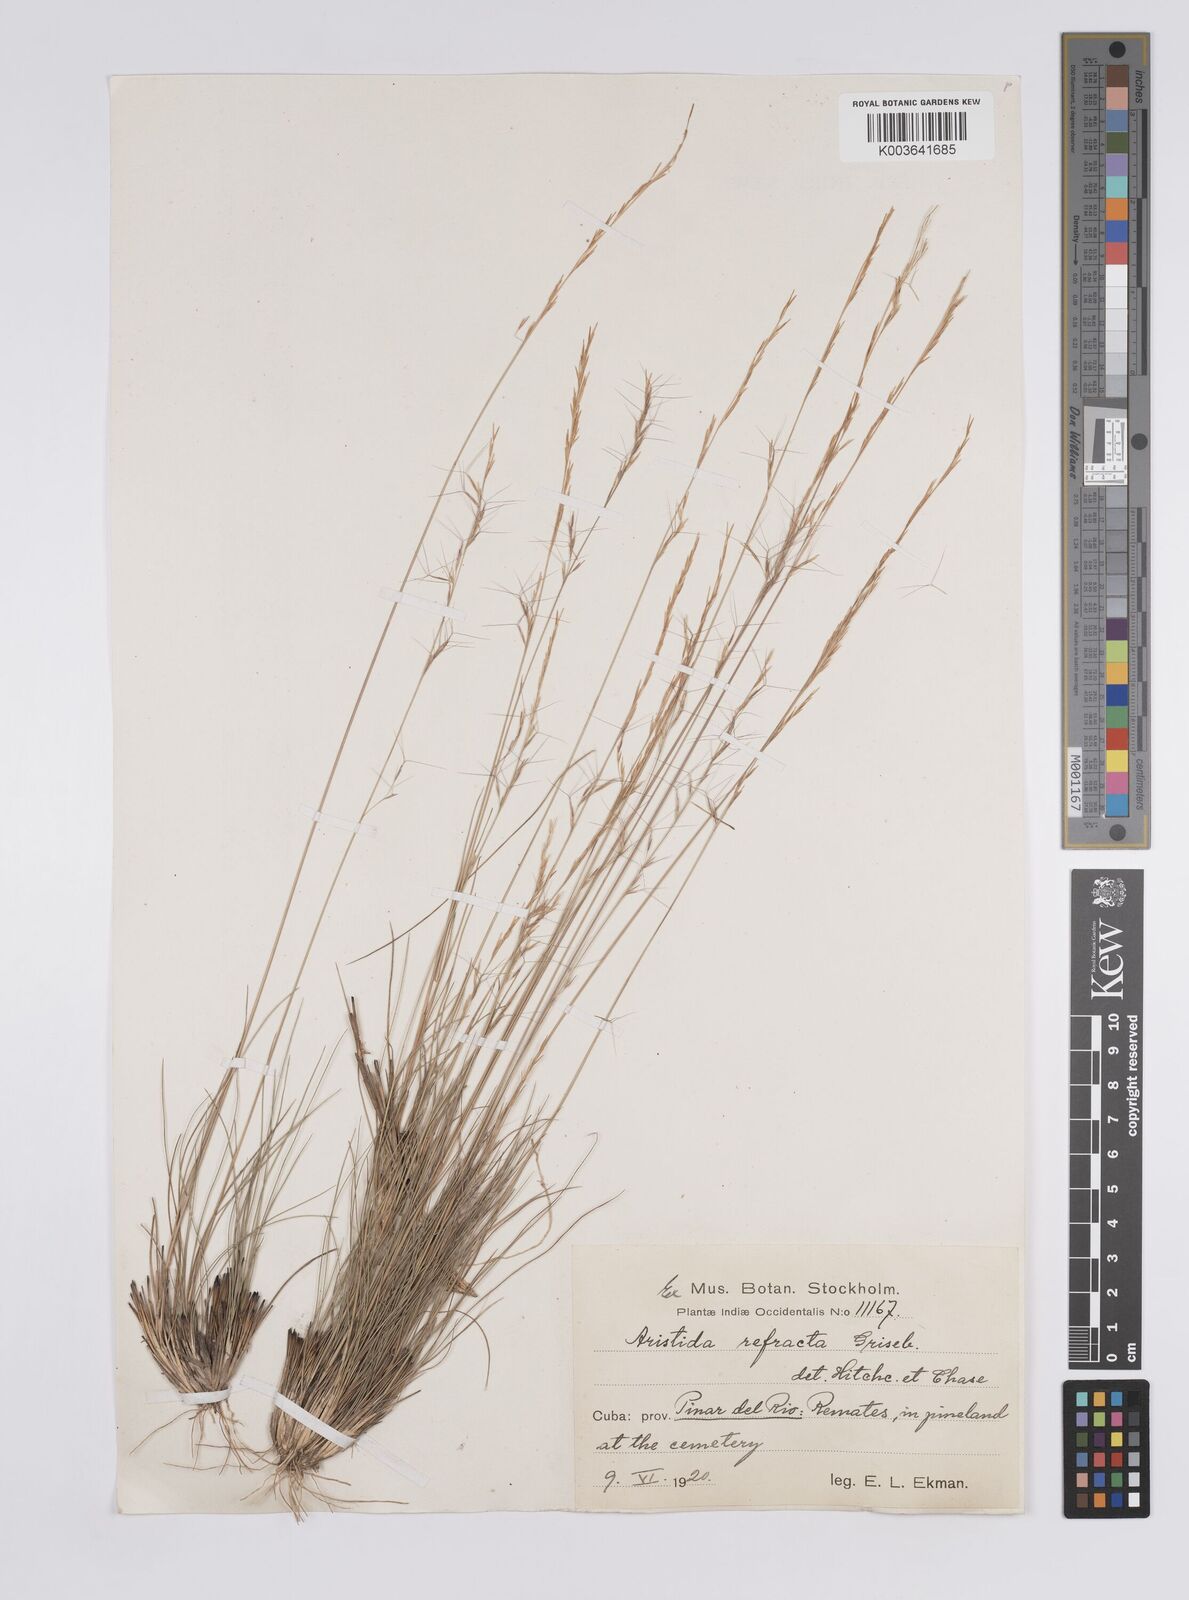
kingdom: Plantae
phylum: Tracheophyta
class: Liliopsida
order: Poales
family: Poaceae
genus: Aristida
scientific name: Aristida refracta
